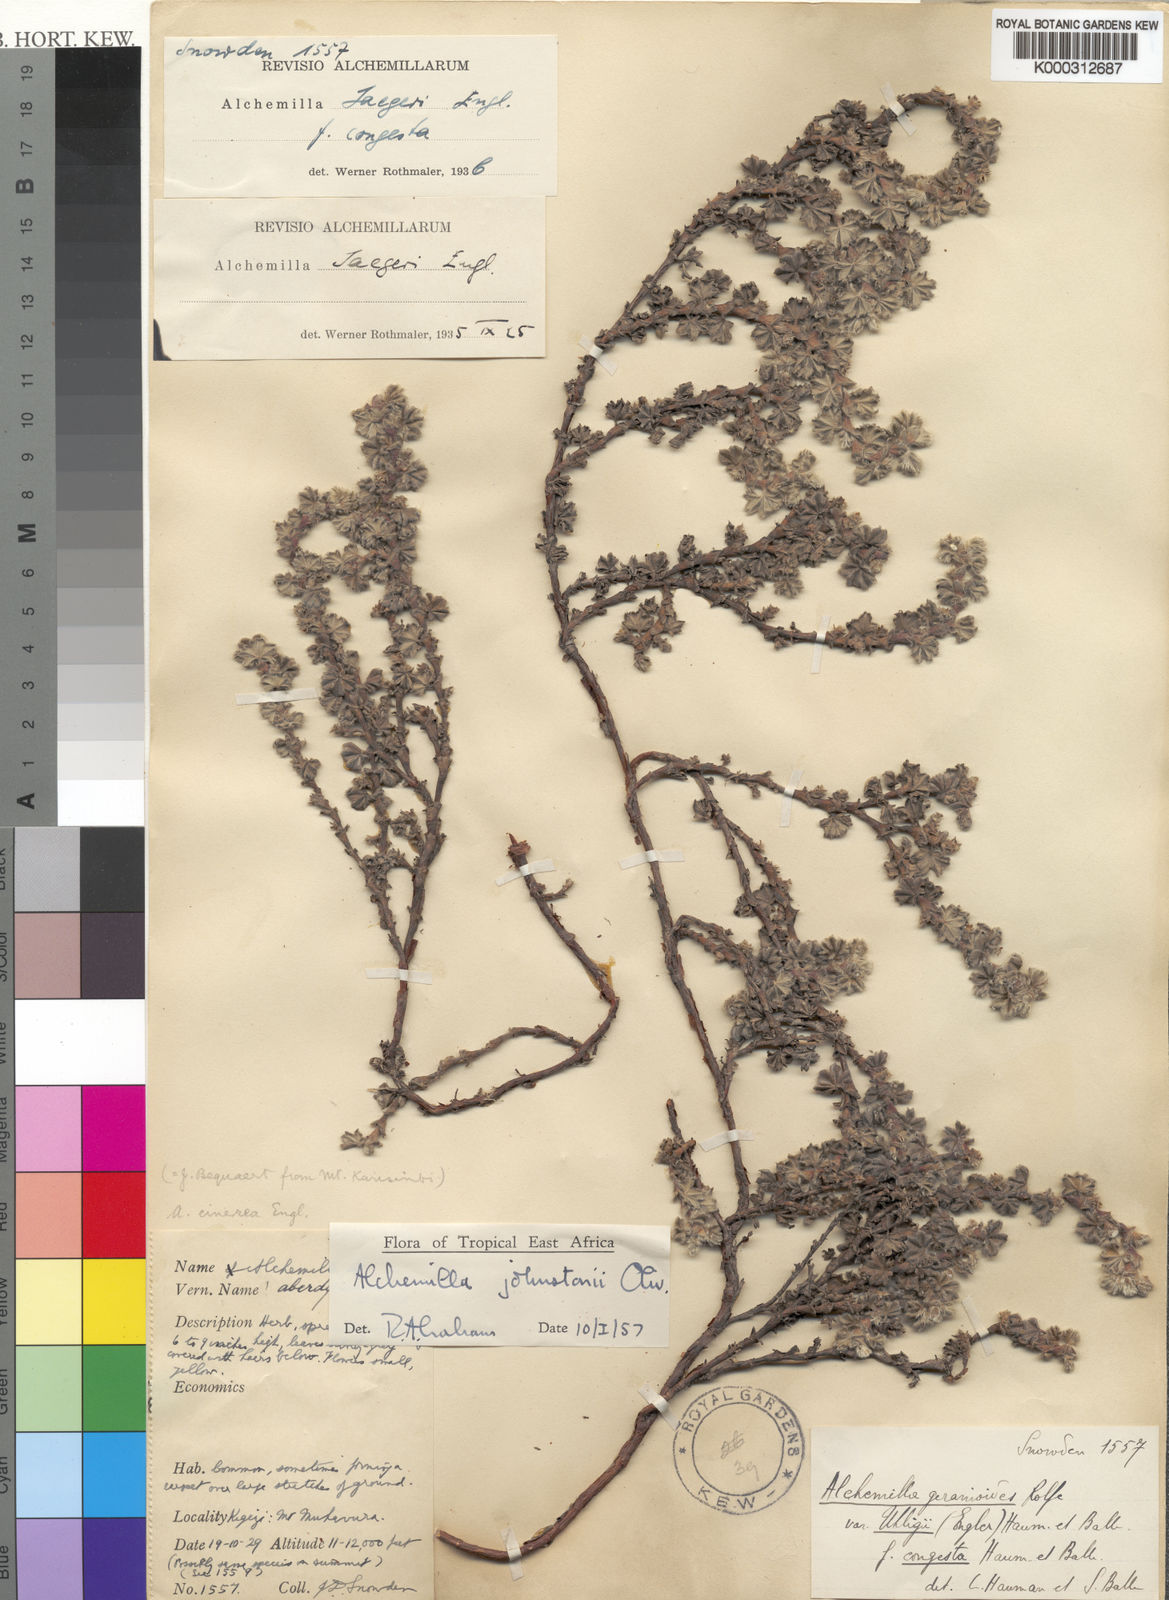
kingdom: Plantae
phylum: Tracheophyta
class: Magnoliopsida
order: Rosales
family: Rosaceae
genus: Alchemilla
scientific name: Alchemilla johnstonii
